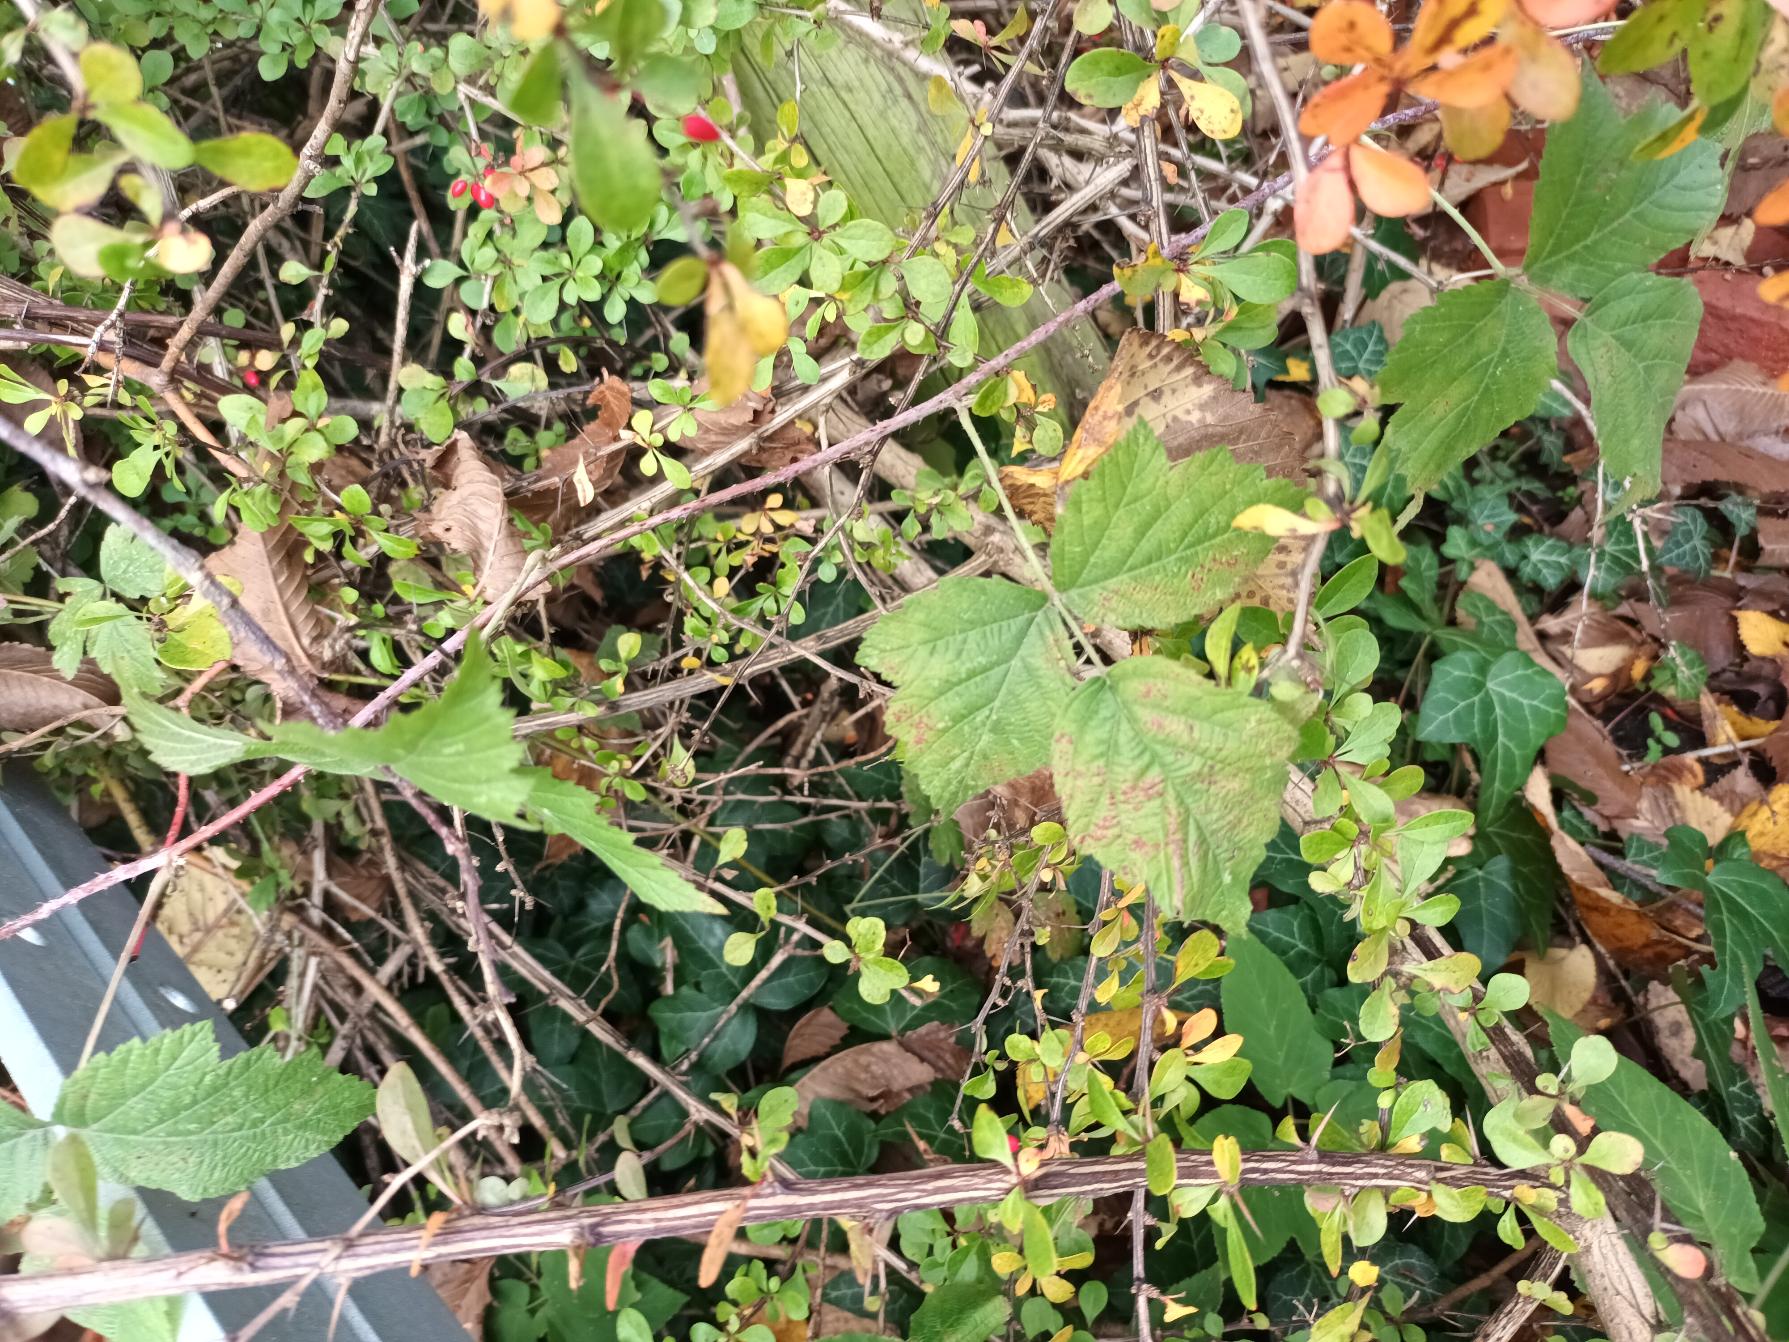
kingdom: Plantae
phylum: Tracheophyta
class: Magnoliopsida
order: Rosales
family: Rosaceae
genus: Rubus
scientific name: Rubus caesius
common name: Korbær
